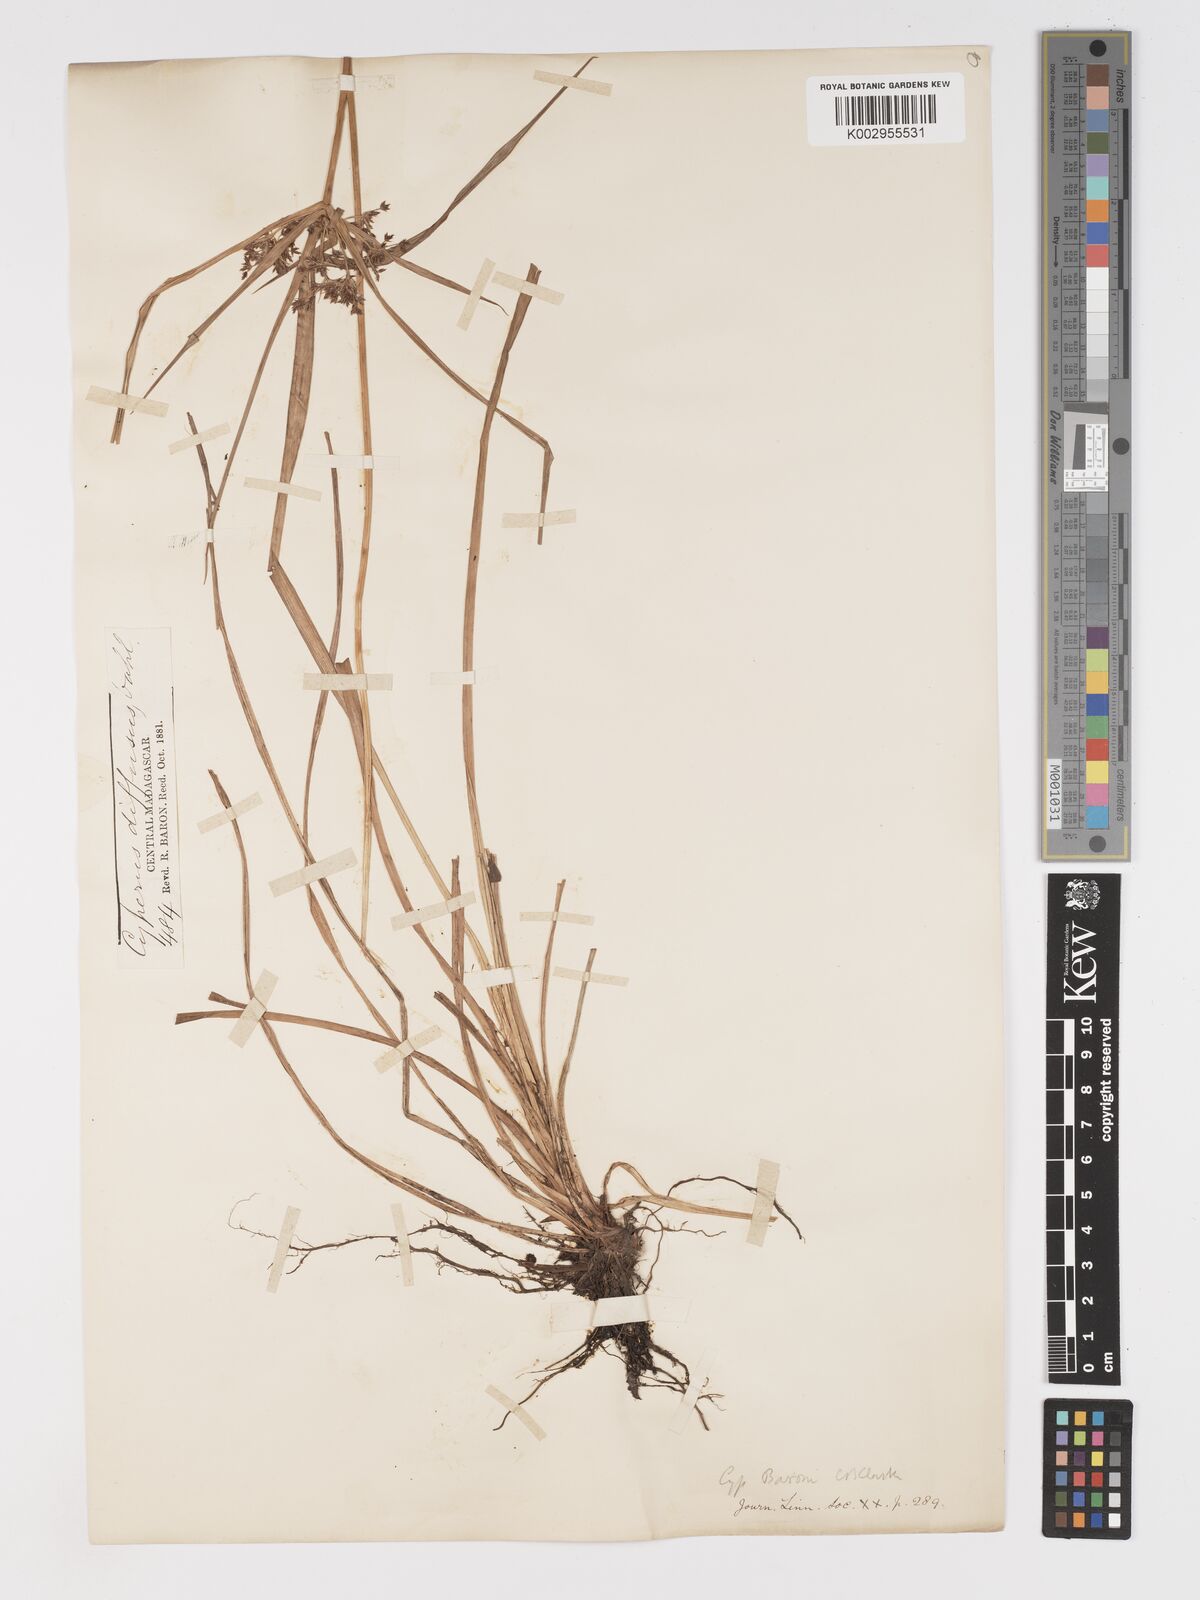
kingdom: Plantae
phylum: Tracheophyta
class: Liliopsida
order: Poales
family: Cyperaceae
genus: Cyperus
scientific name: Cyperus baronii
